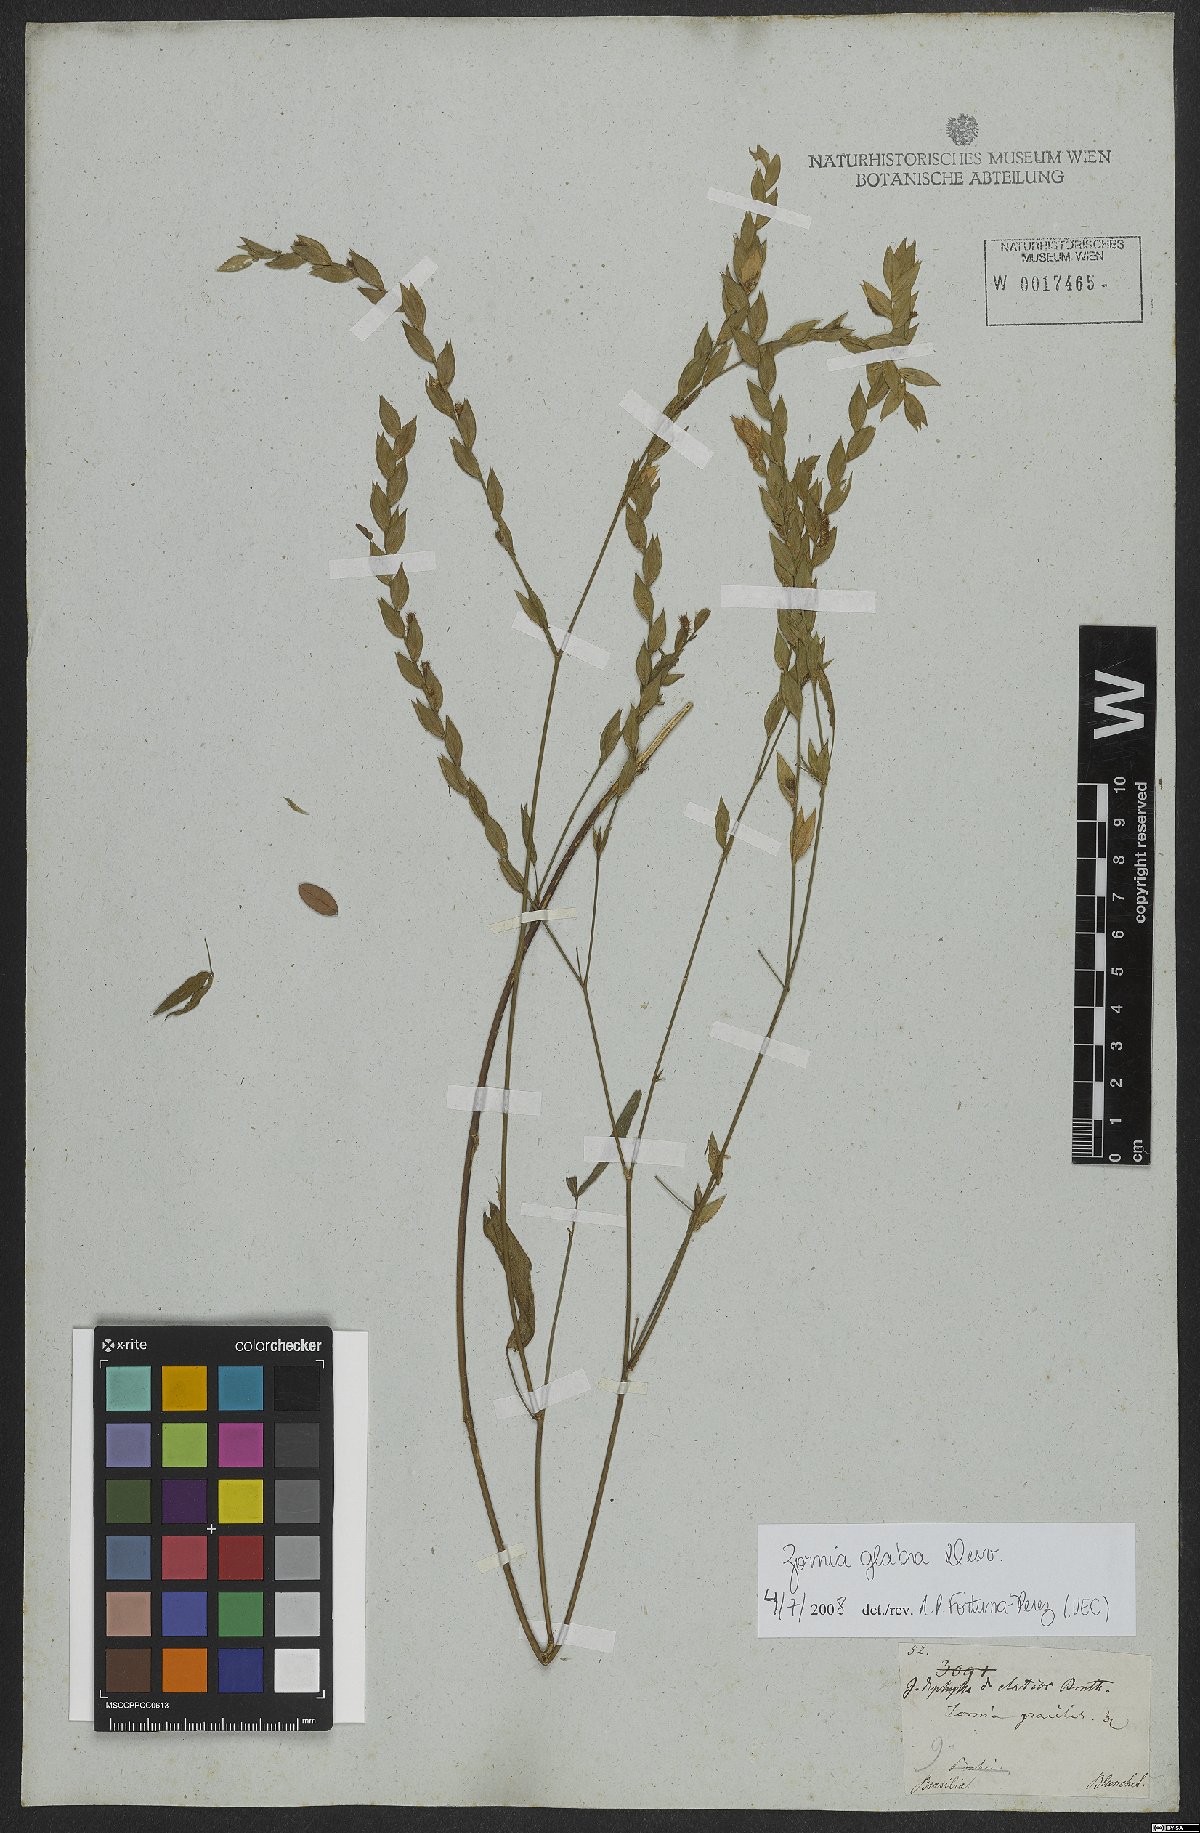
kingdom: Plantae
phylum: Tracheophyta
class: Magnoliopsida
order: Fabales
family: Fabaceae
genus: Zornia
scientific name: Zornia glabra
